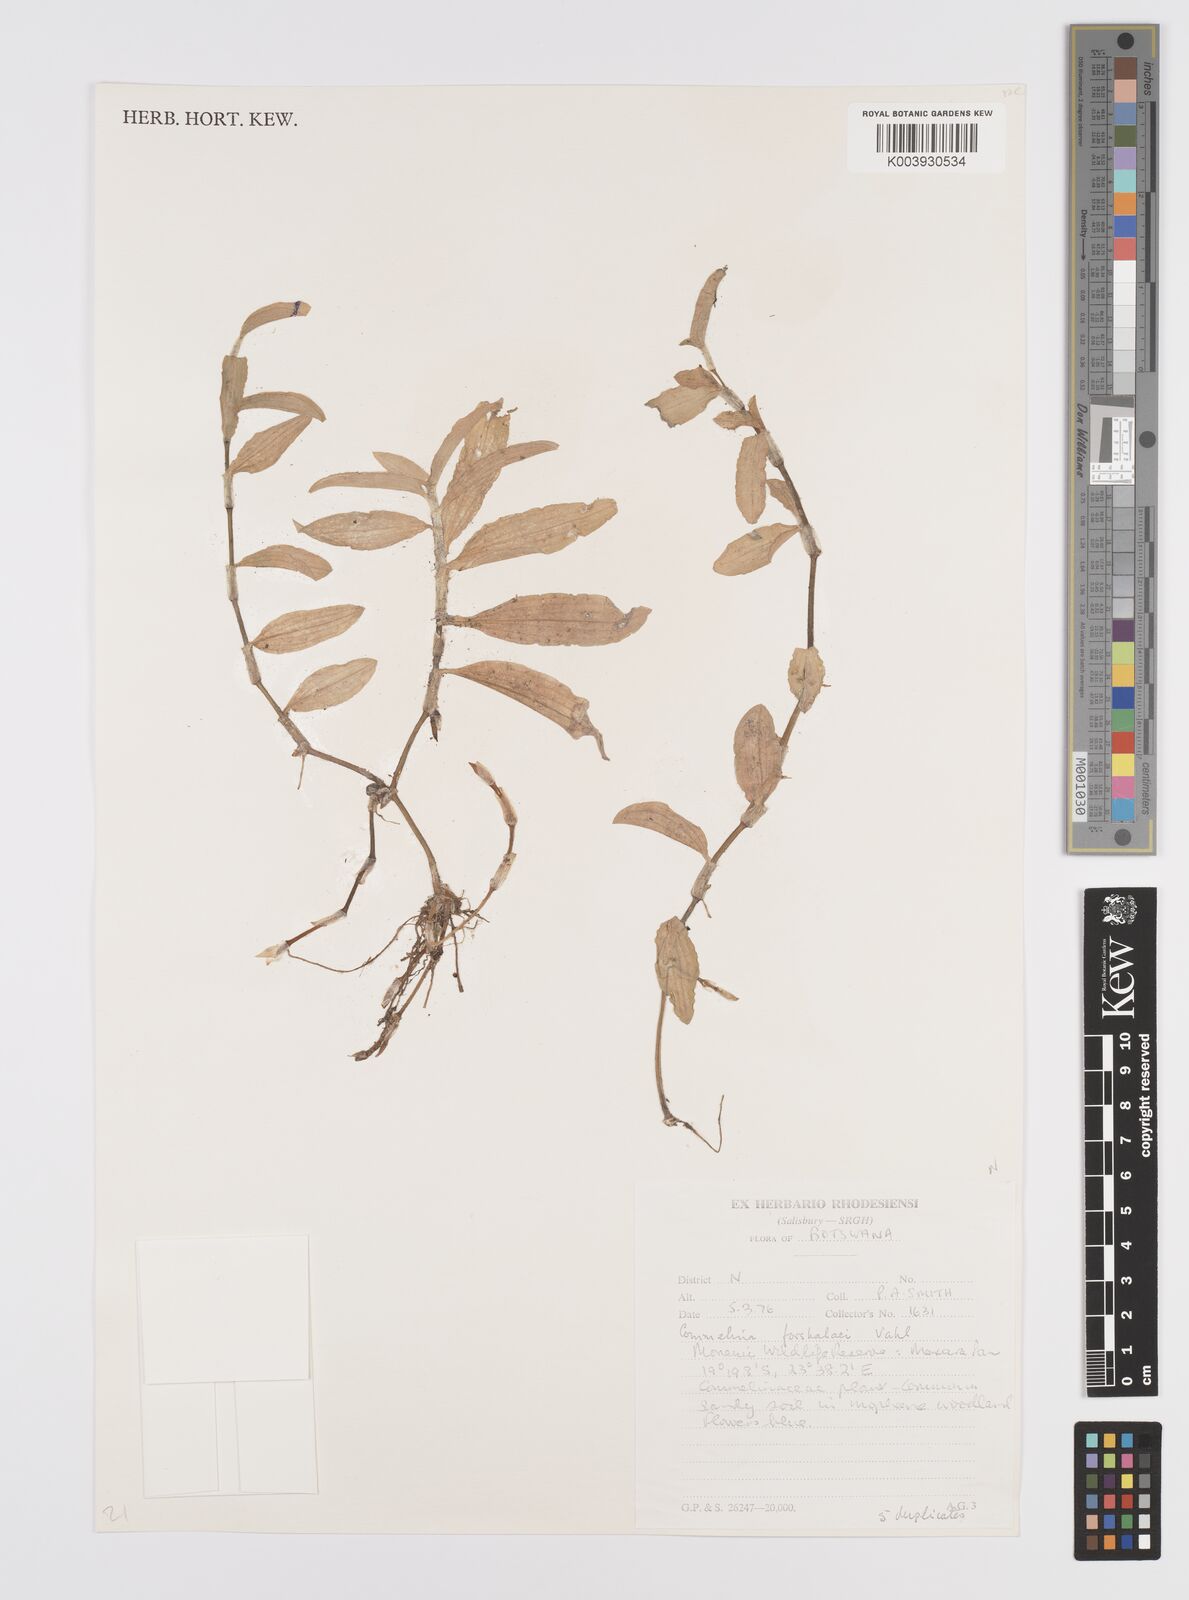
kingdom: Plantae
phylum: Tracheophyta
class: Liliopsida
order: Commelinales
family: Commelinaceae
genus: Commelina
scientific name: Commelina forskaolii
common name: Rat's ear
